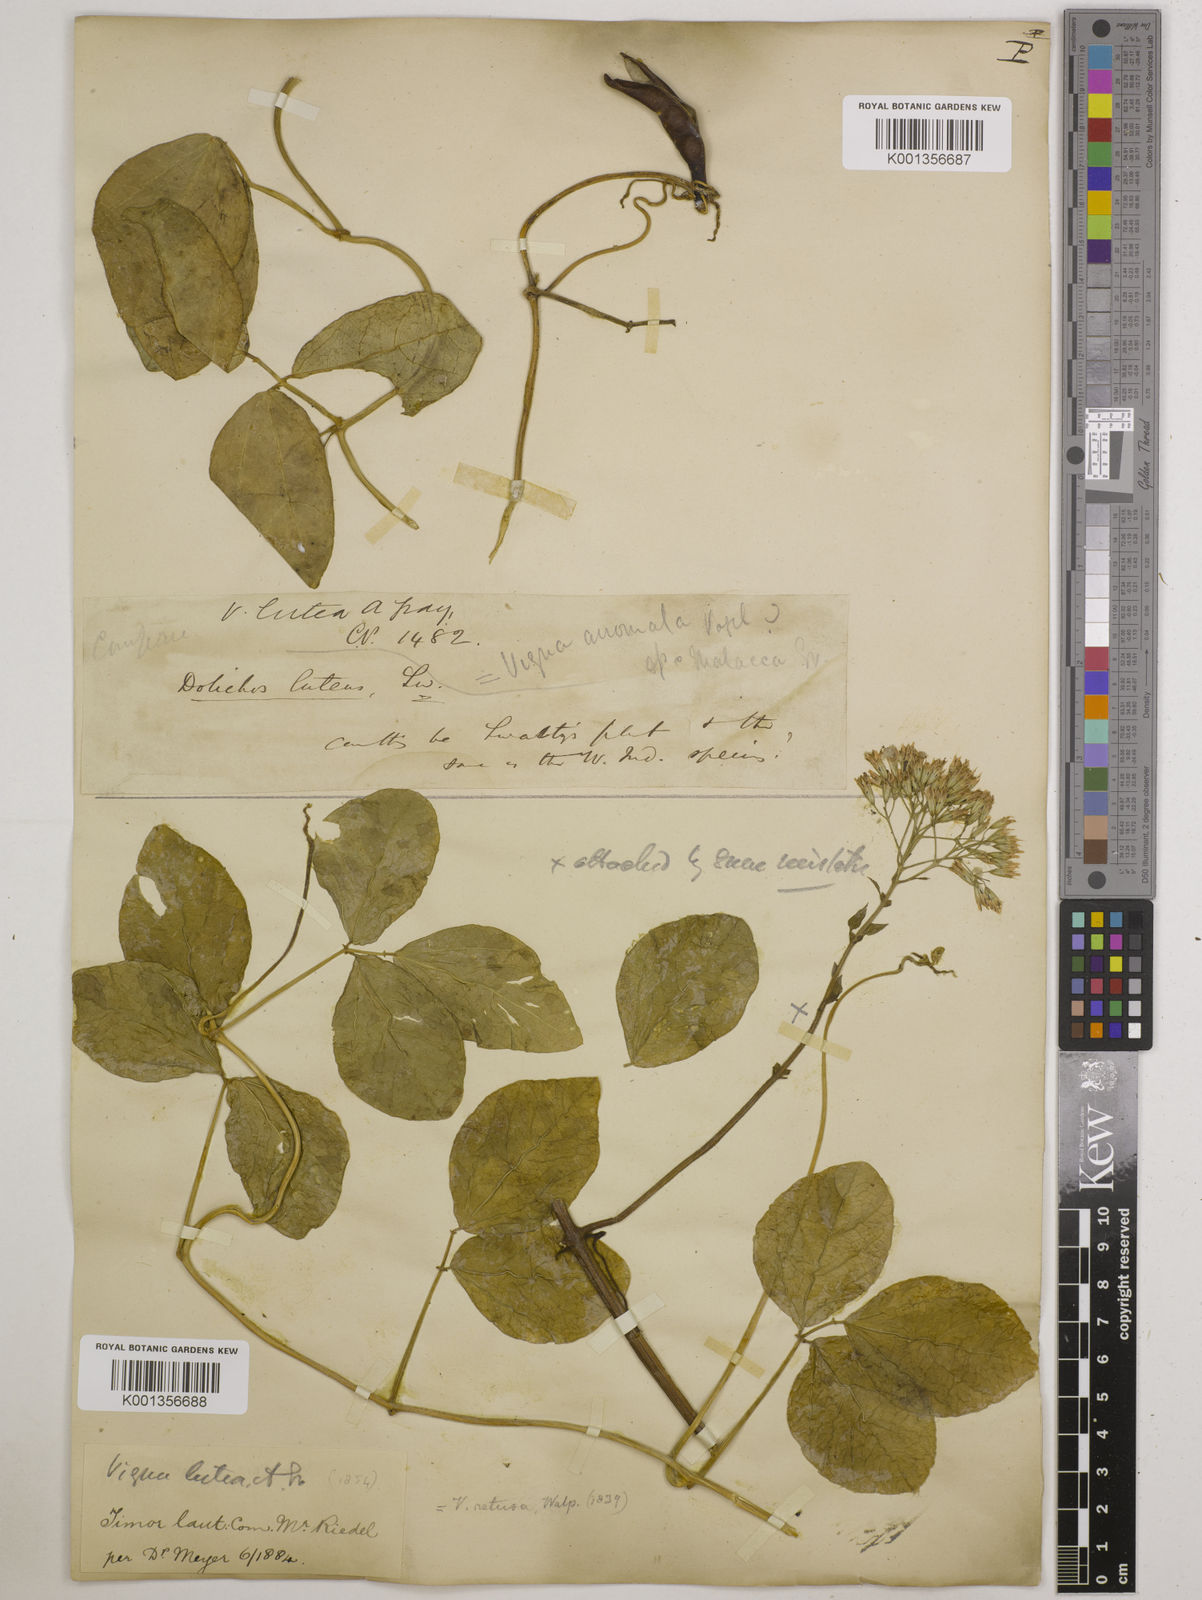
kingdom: Plantae
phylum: Tracheophyta
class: Magnoliopsida
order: Fabales
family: Fabaceae
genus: Vigna
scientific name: Vigna marina
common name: Dune-bean
